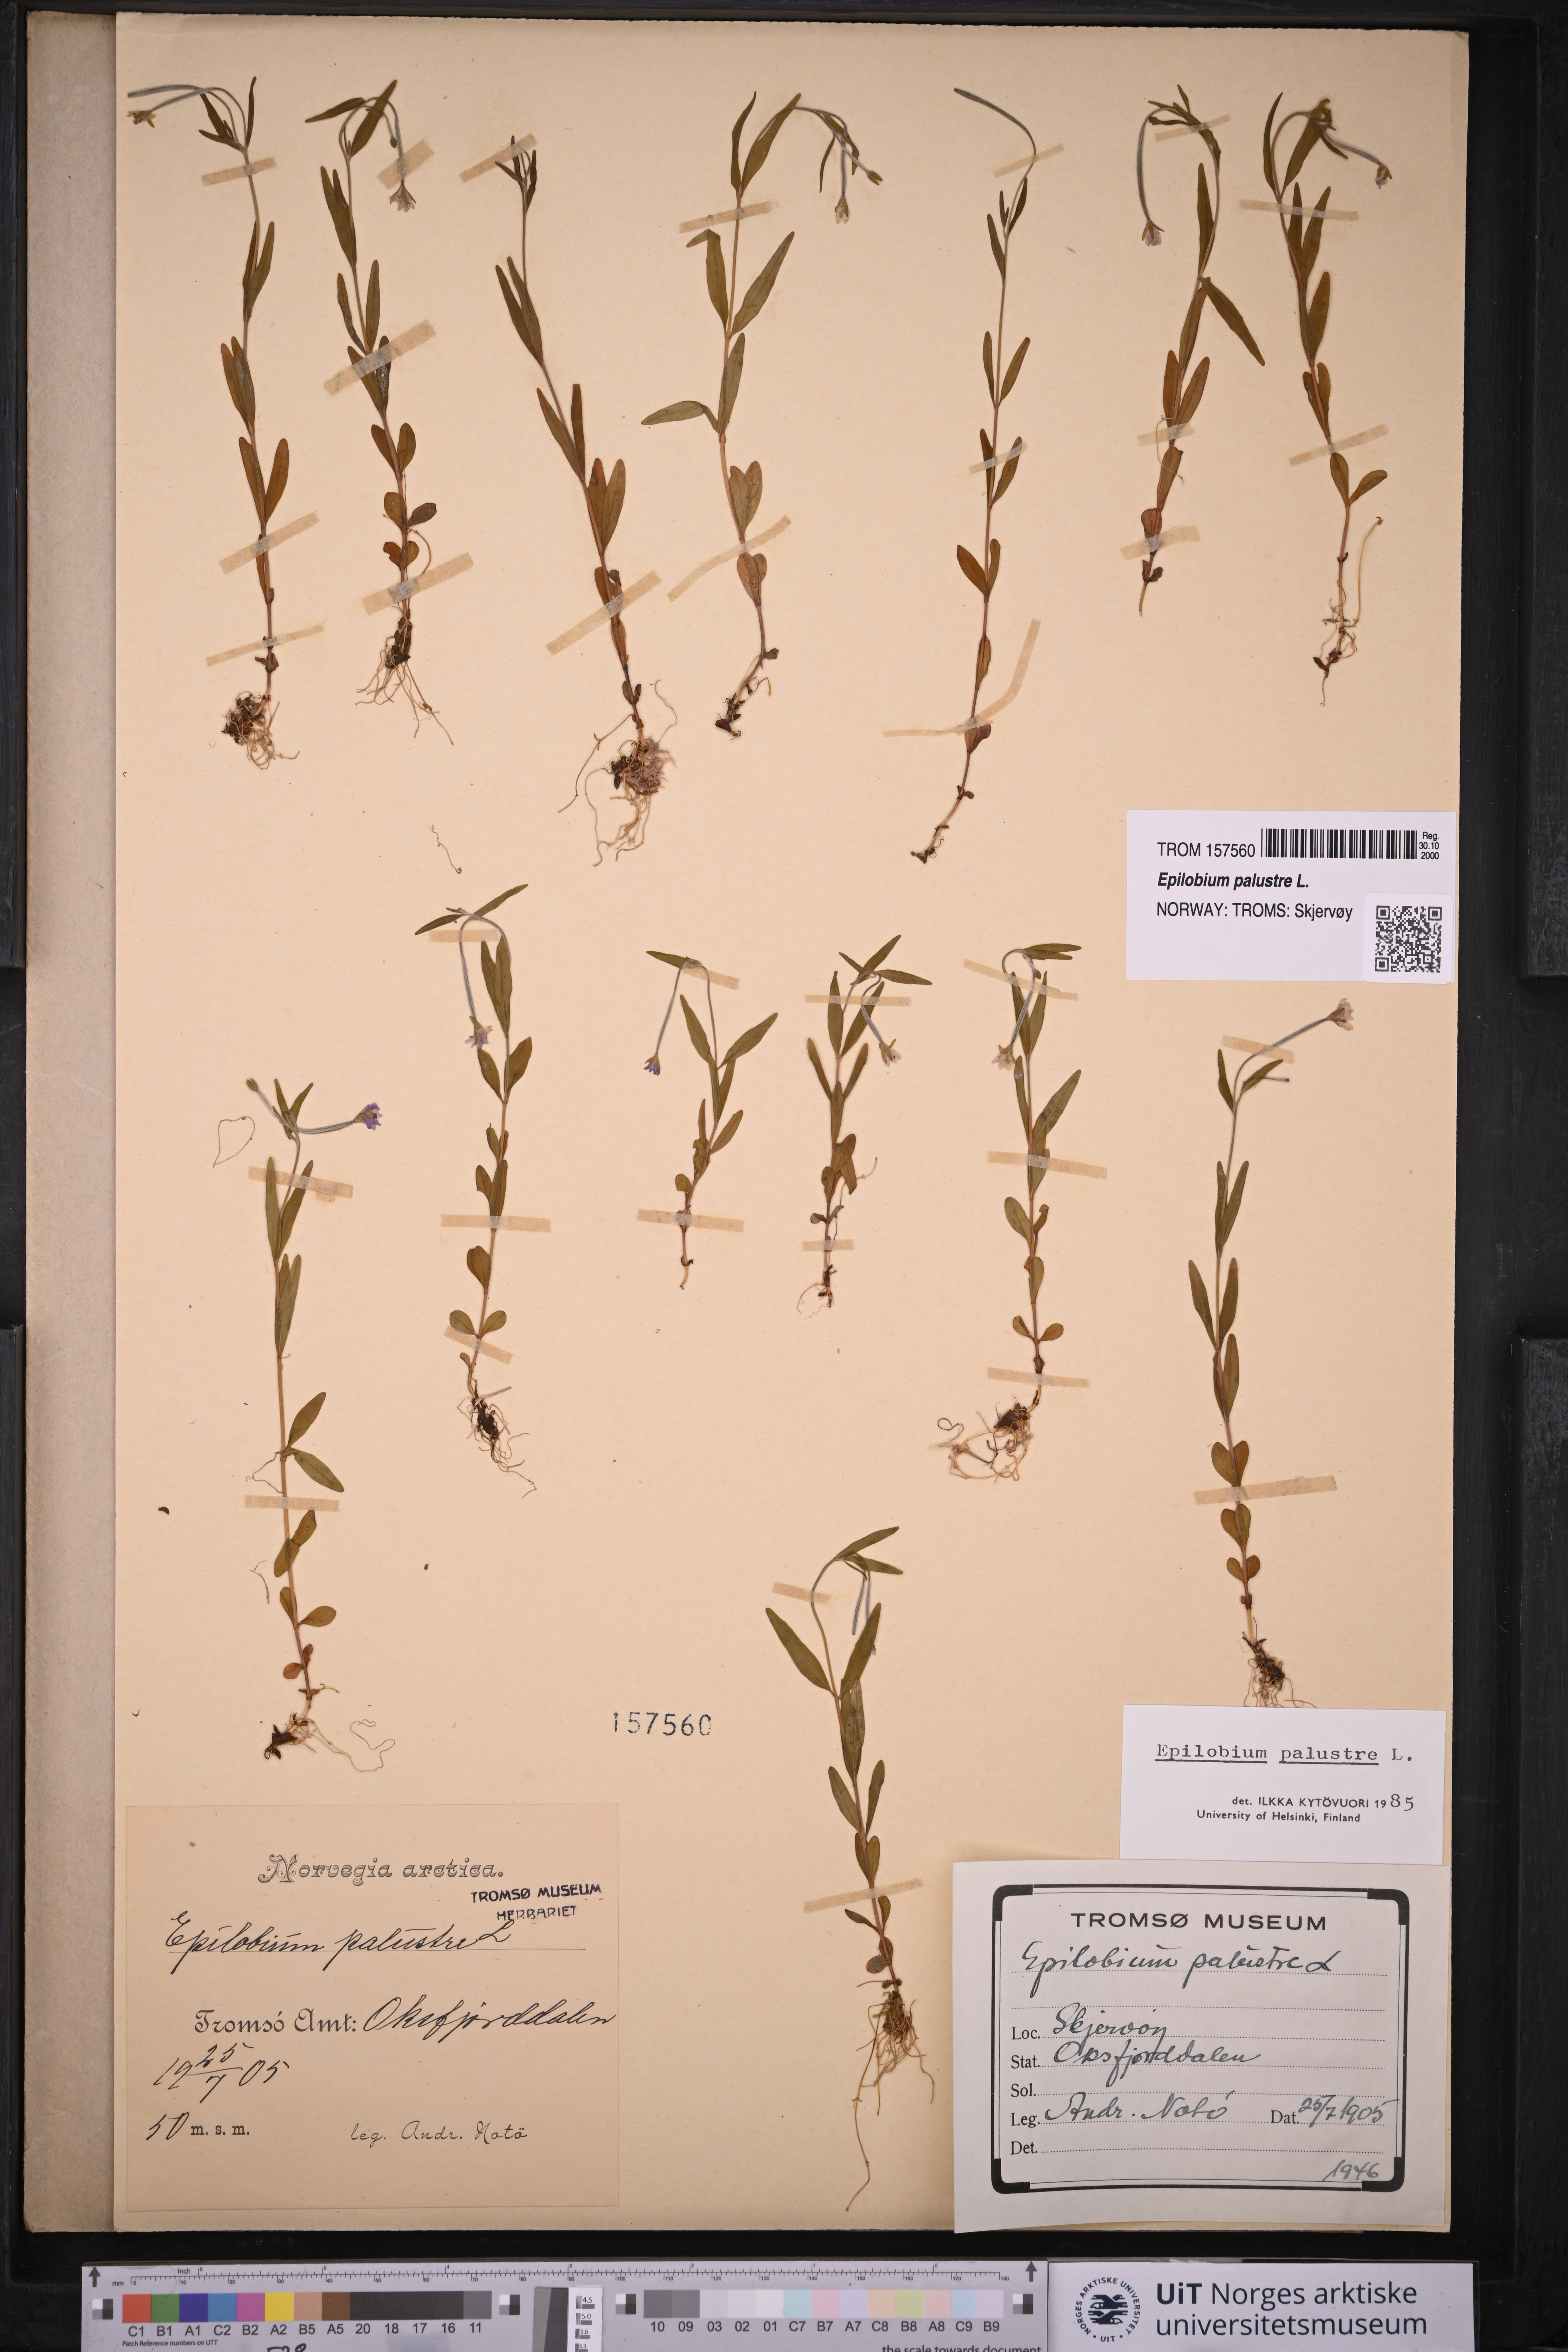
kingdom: Plantae
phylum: Tracheophyta
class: Magnoliopsida
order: Myrtales
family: Onagraceae
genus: Epilobium
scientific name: Epilobium palustre
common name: Marsh willowherb
